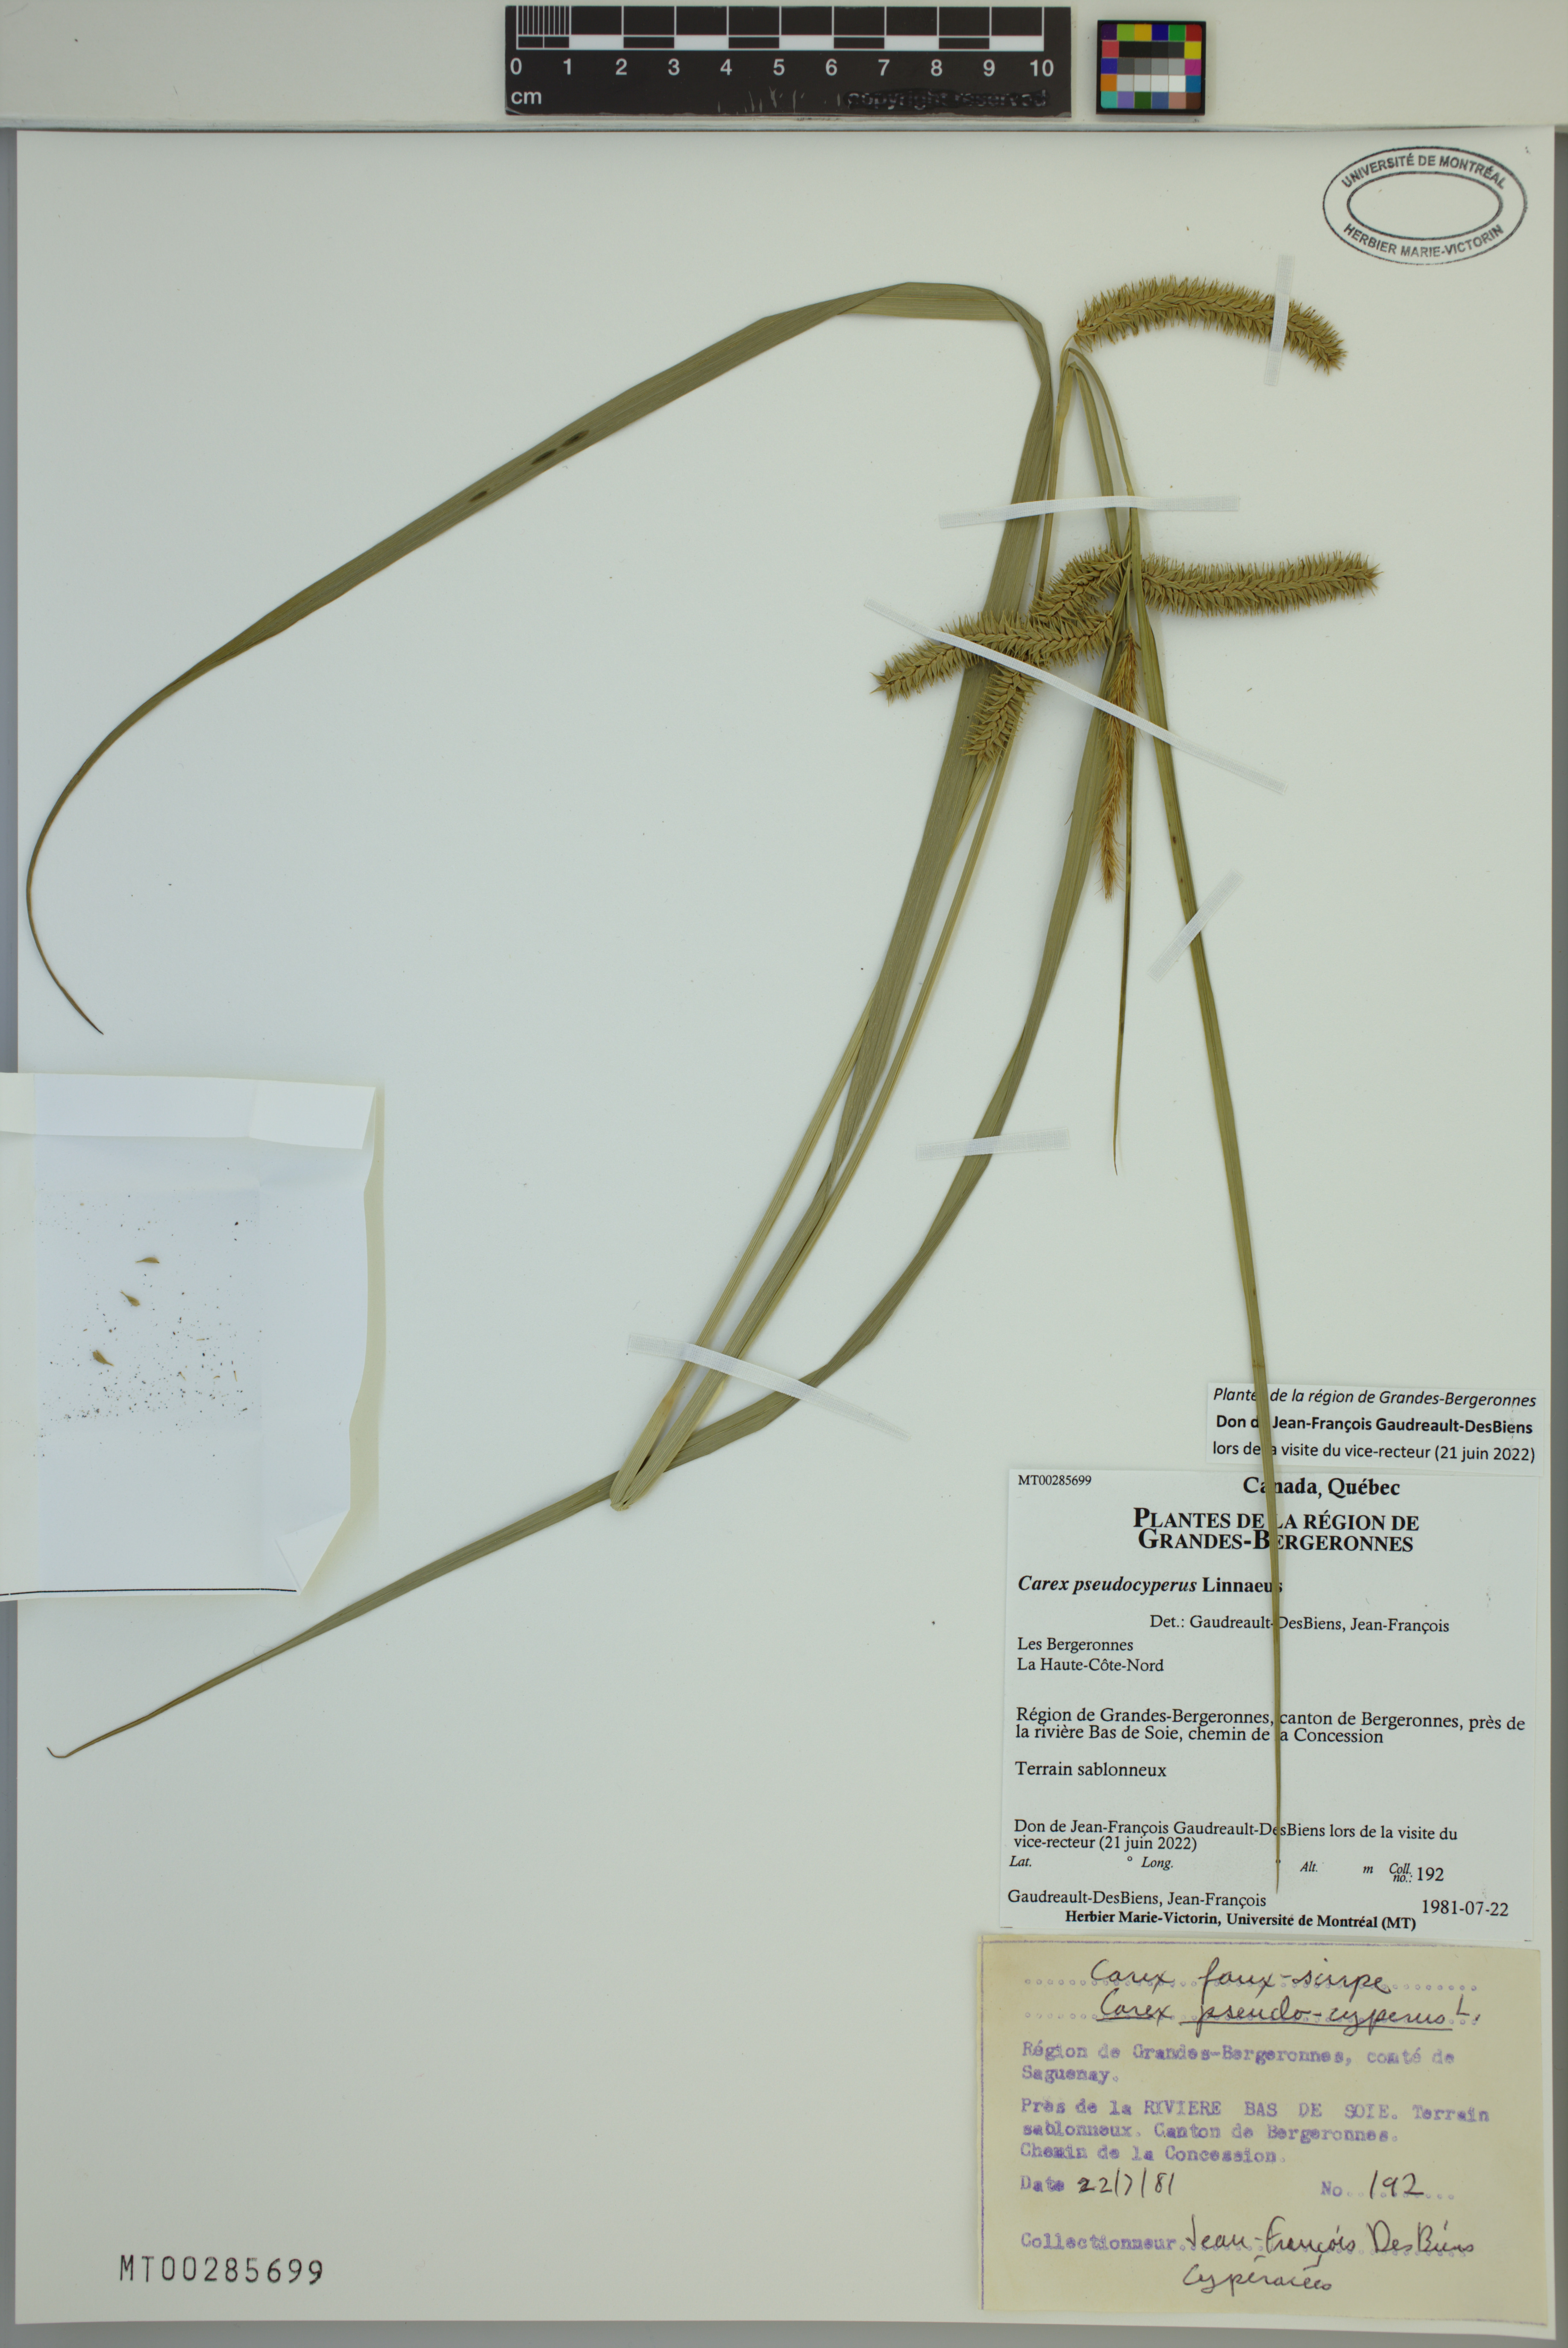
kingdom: Plantae
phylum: Tracheophyta
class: Liliopsida
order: Poales
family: Cyperaceae
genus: Carex
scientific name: Carex pseudocyperus
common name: Cyperus sedge
